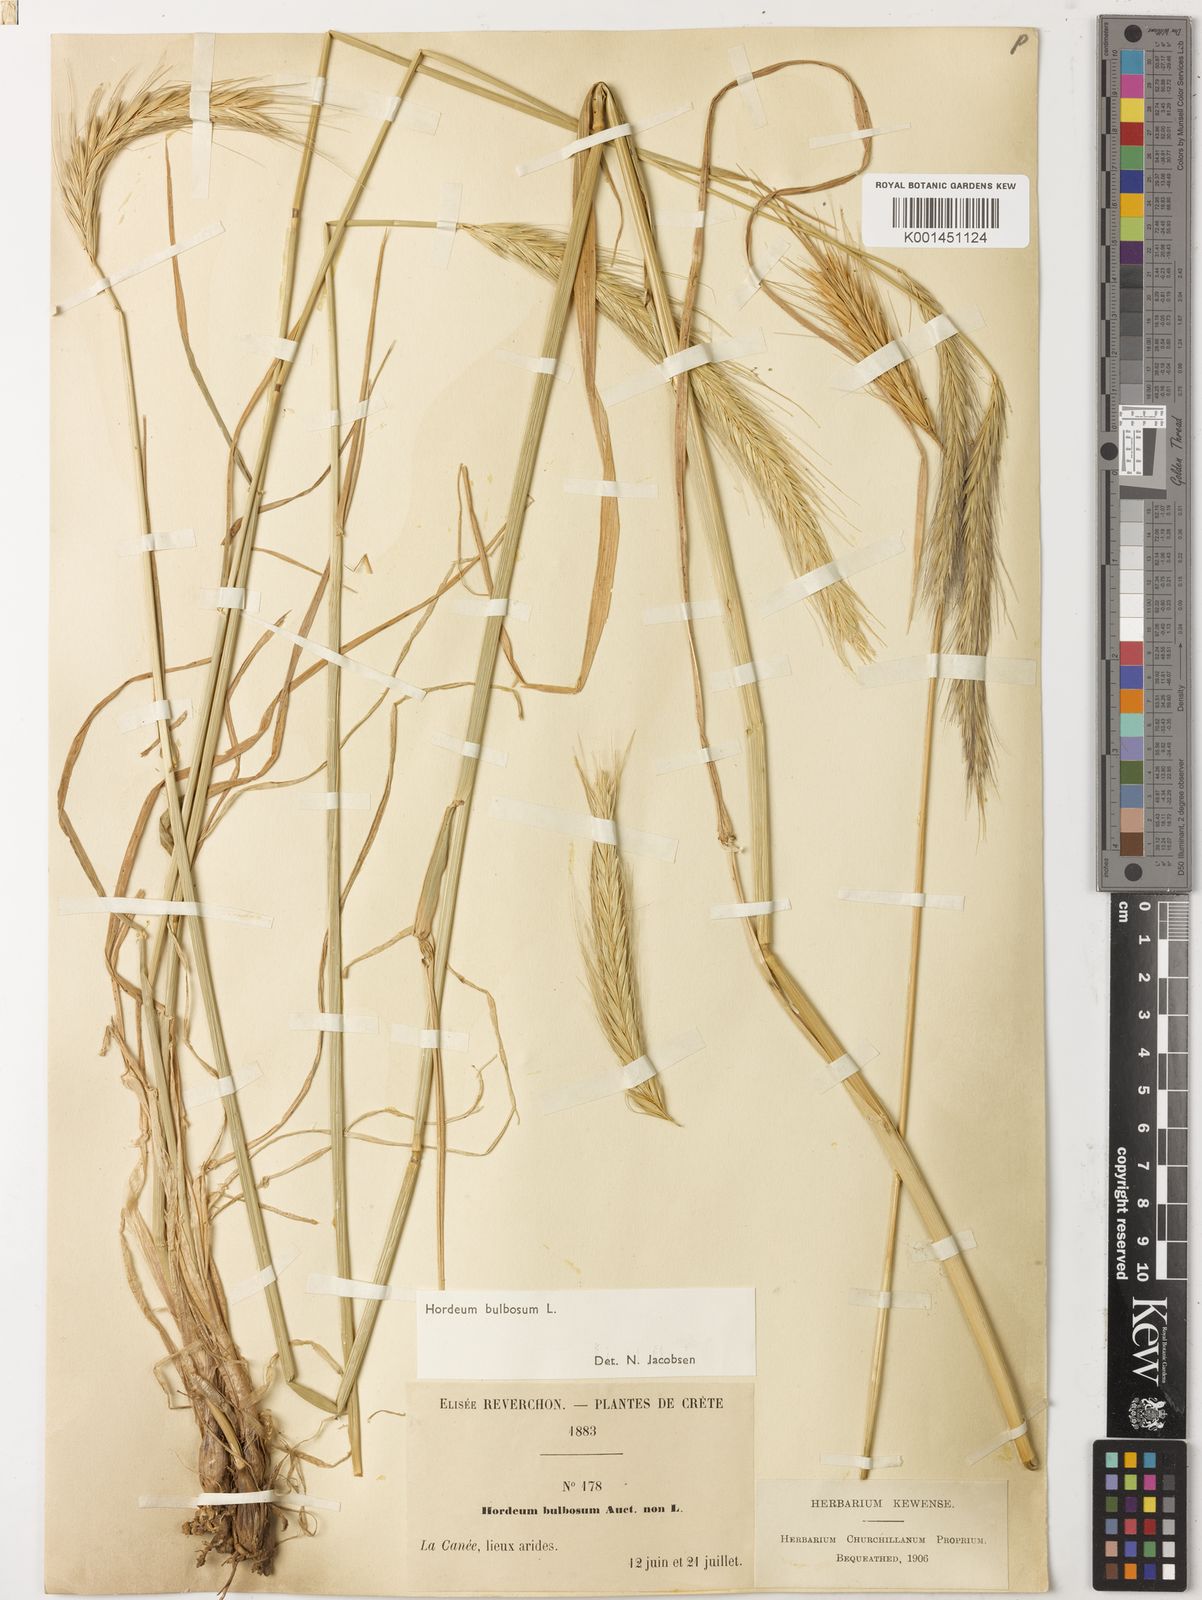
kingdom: Plantae
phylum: Tracheophyta
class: Liliopsida
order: Poales
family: Poaceae
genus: Hordeum
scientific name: Hordeum bulbosum
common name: Bulbous barley
